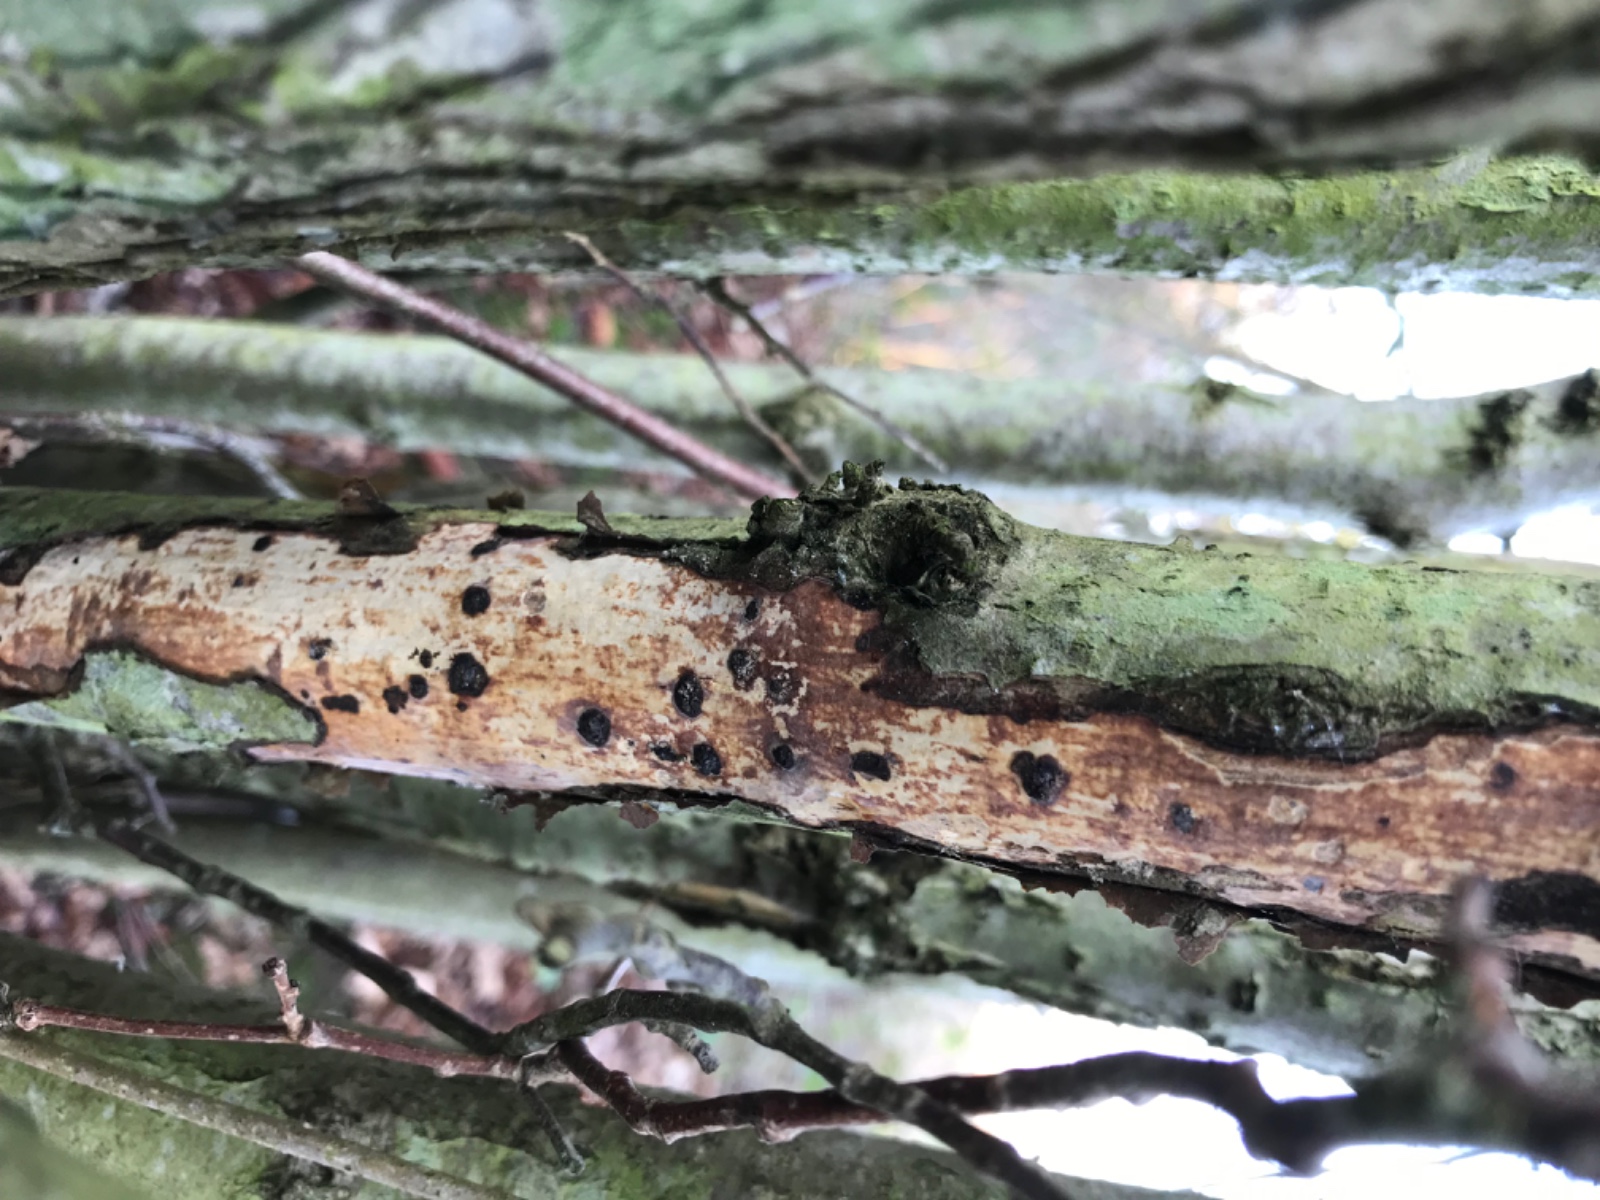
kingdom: Fungi
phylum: Basidiomycota
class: Agaricomycetes
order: Corticiales
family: Vuilleminiaceae
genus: Vuilleminia
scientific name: Vuilleminia coryli
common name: hassel-barksprænger
